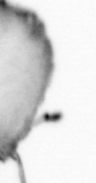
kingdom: Animalia
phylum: Arthropoda
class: Copepoda
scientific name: Copepoda
